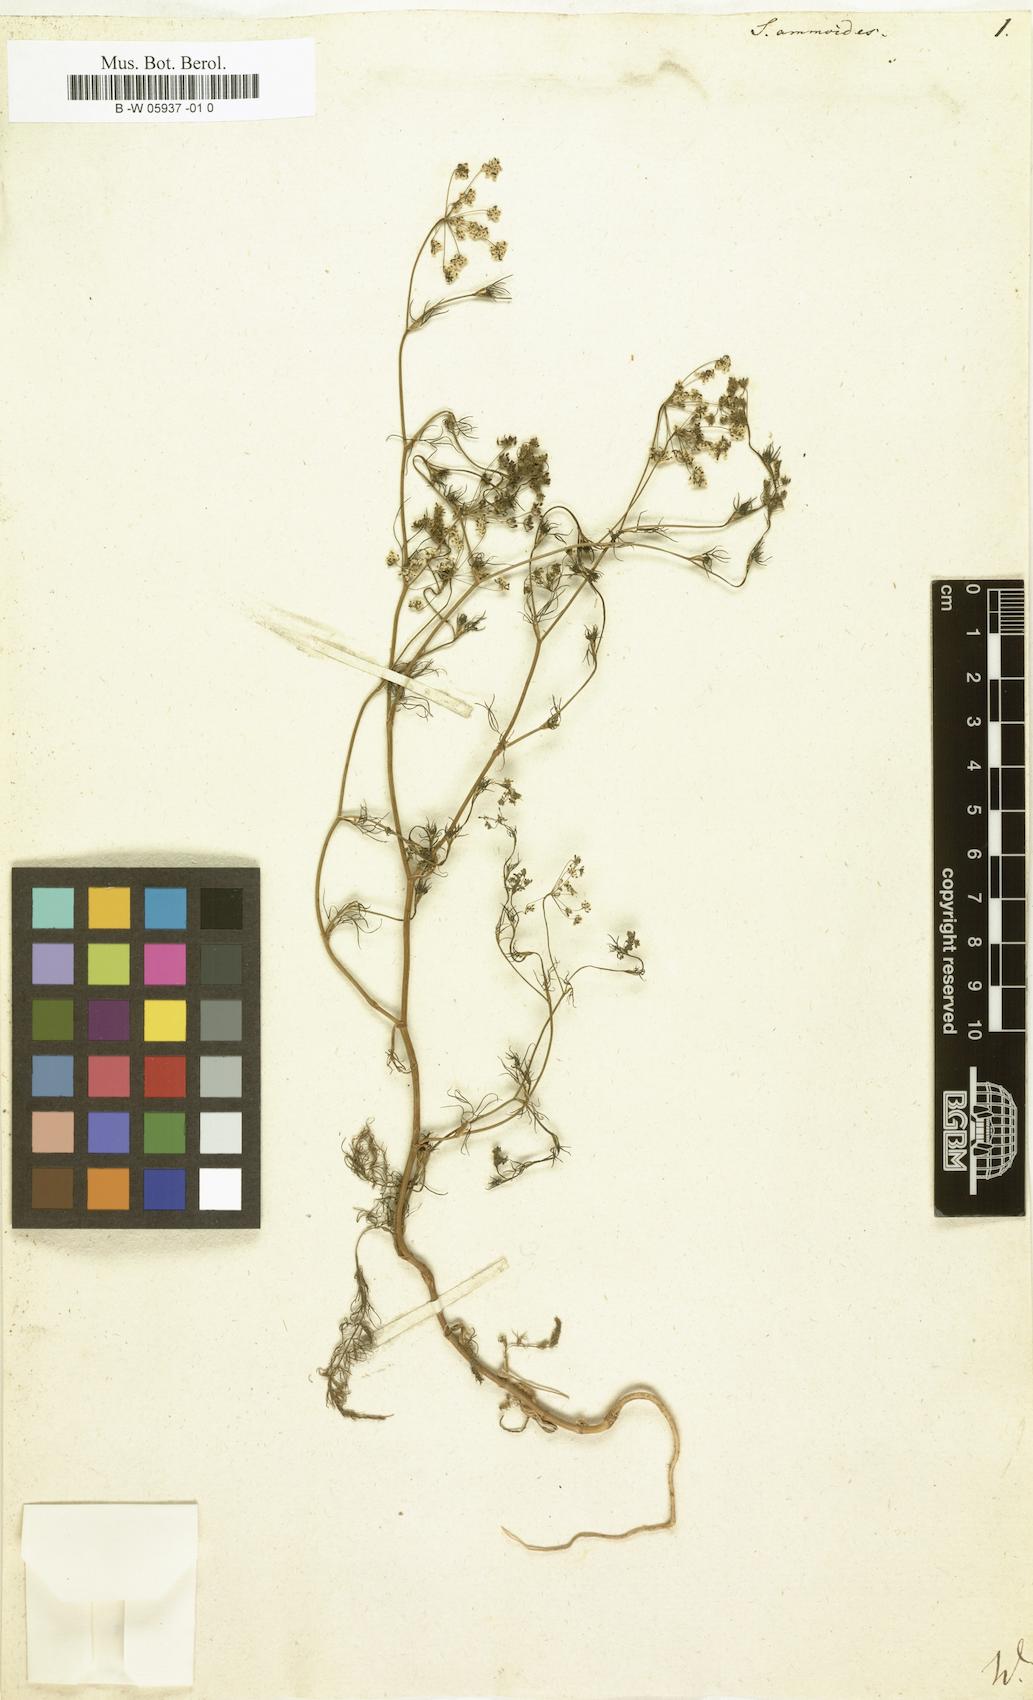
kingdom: Plantae
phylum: Tracheophyta
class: Magnoliopsida
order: Apiales
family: Apiaceae
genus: Ammoides
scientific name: Ammoides pusilla
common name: Cerfolium
